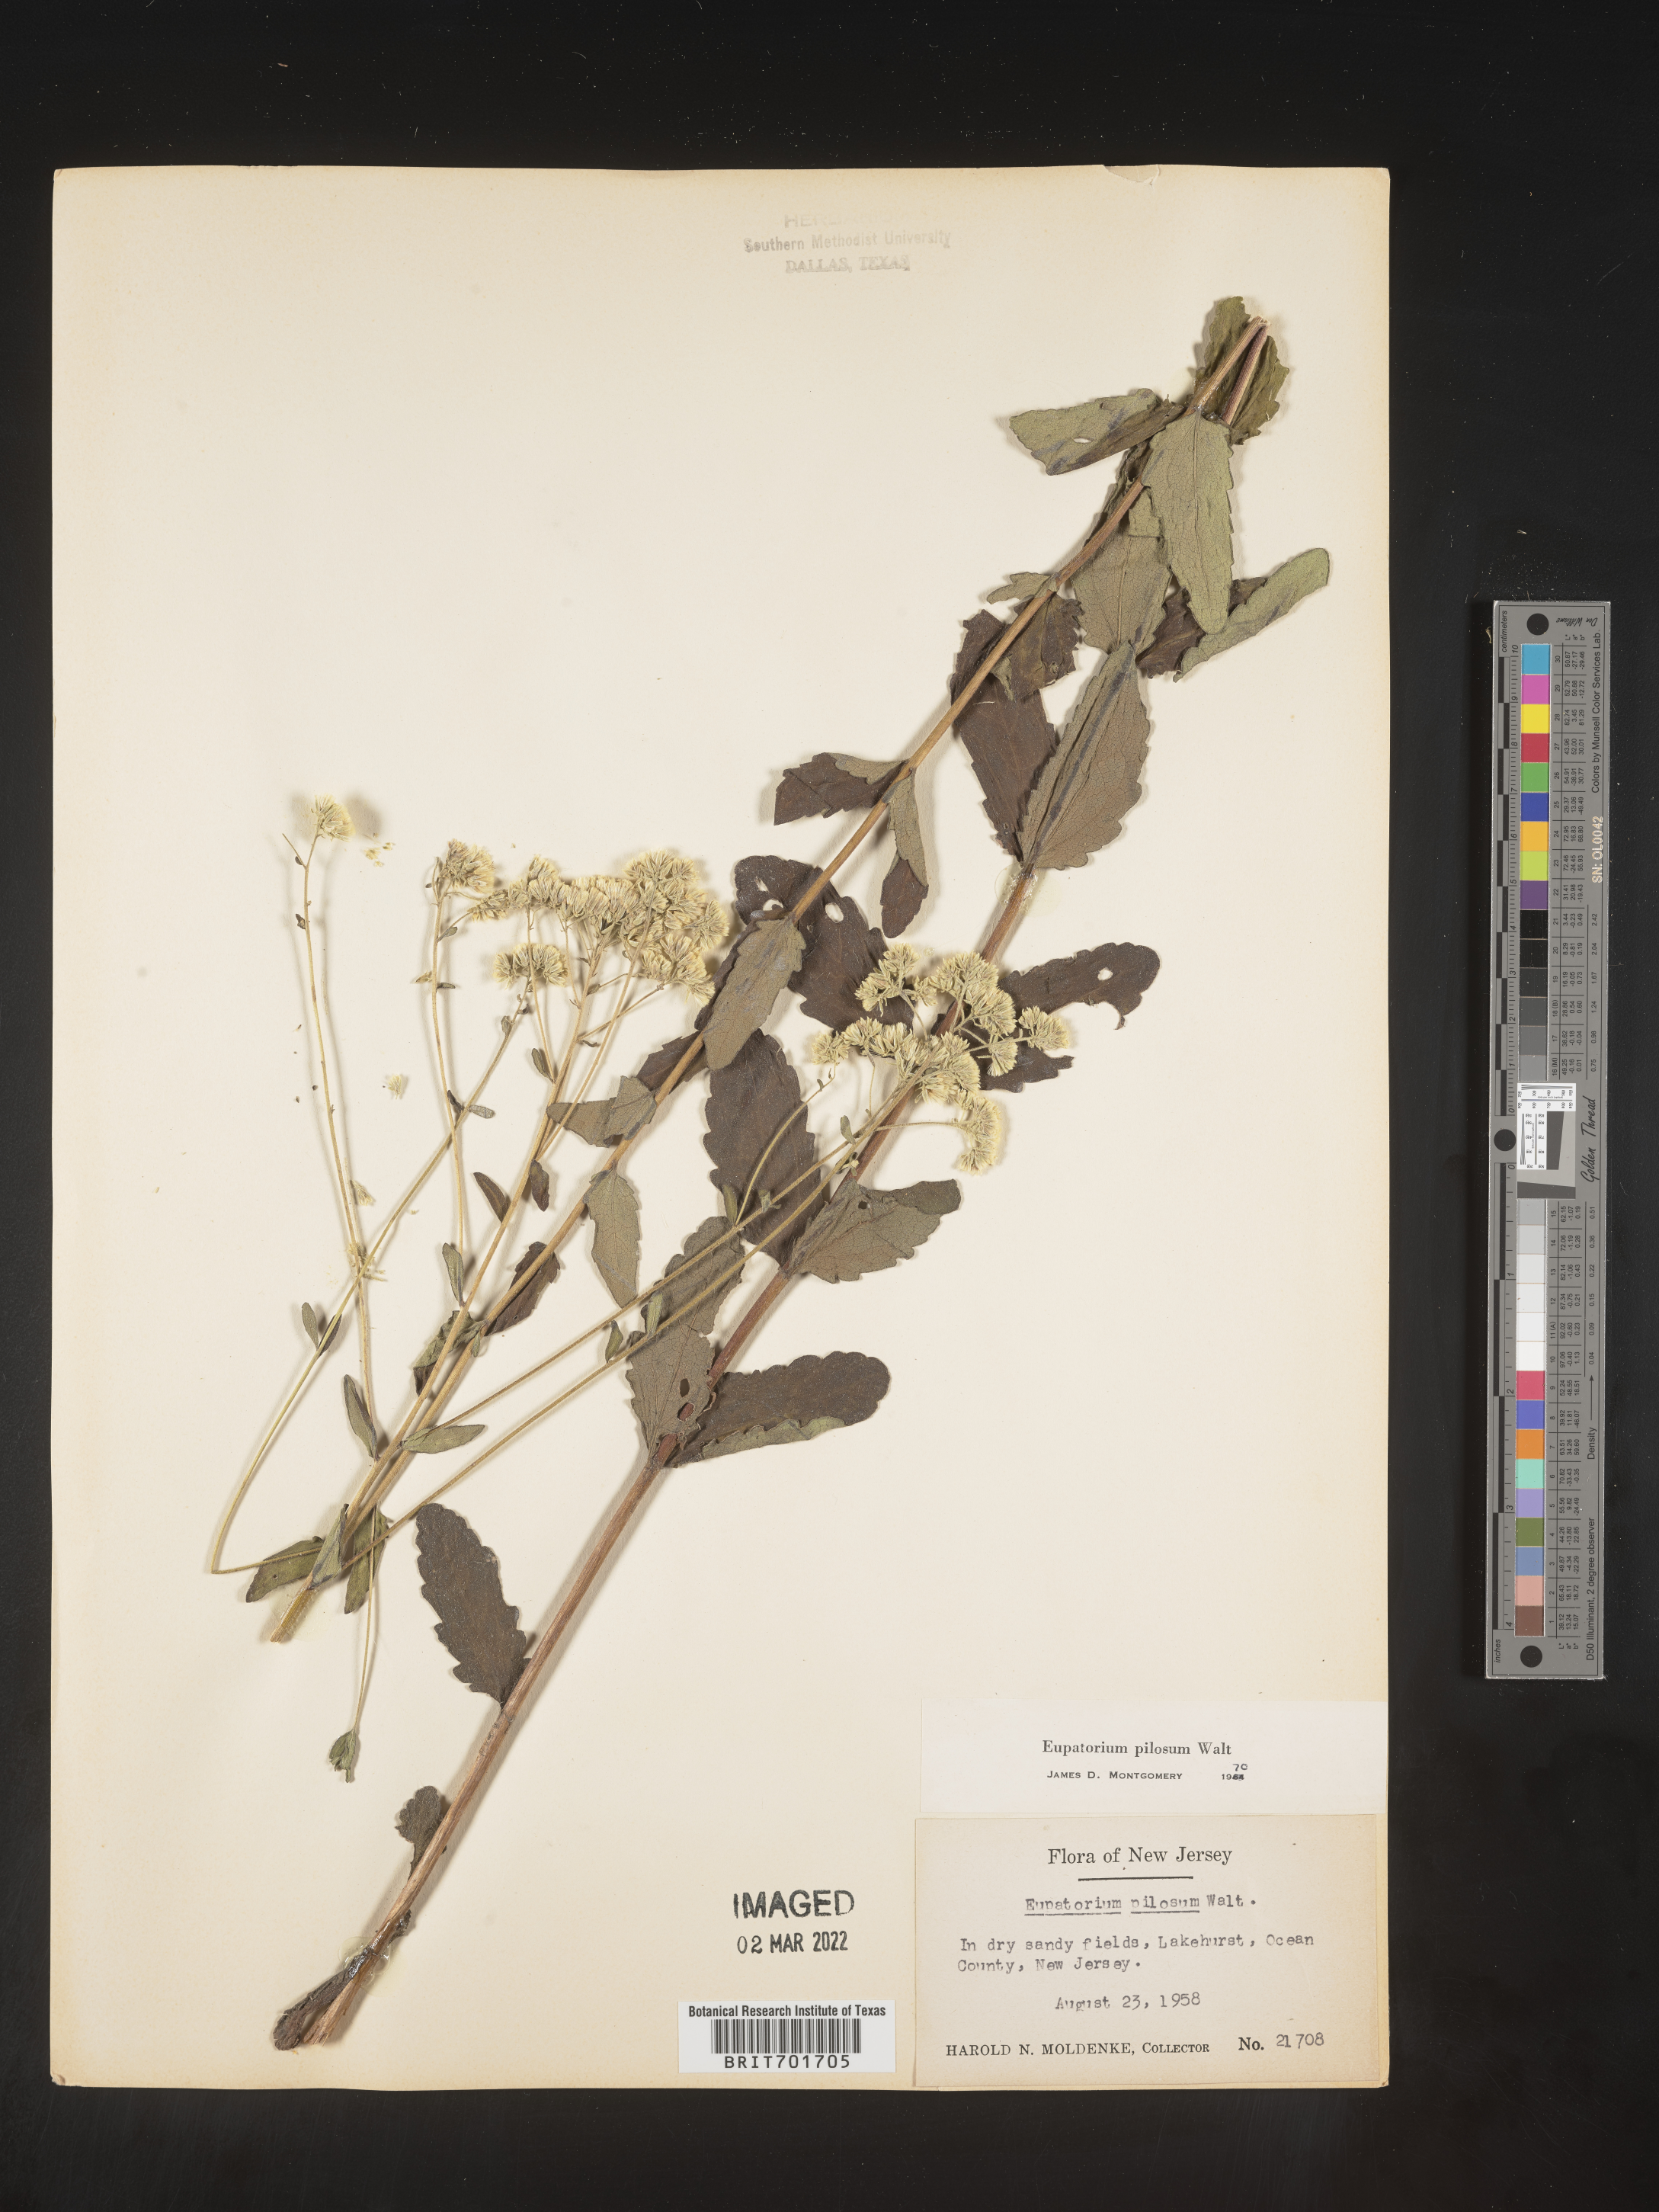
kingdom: Plantae
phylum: Tracheophyta
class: Magnoliopsida
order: Asterales
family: Asteraceae
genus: Eupatorium
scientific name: Eupatorium pilosum
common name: Rough boneset
